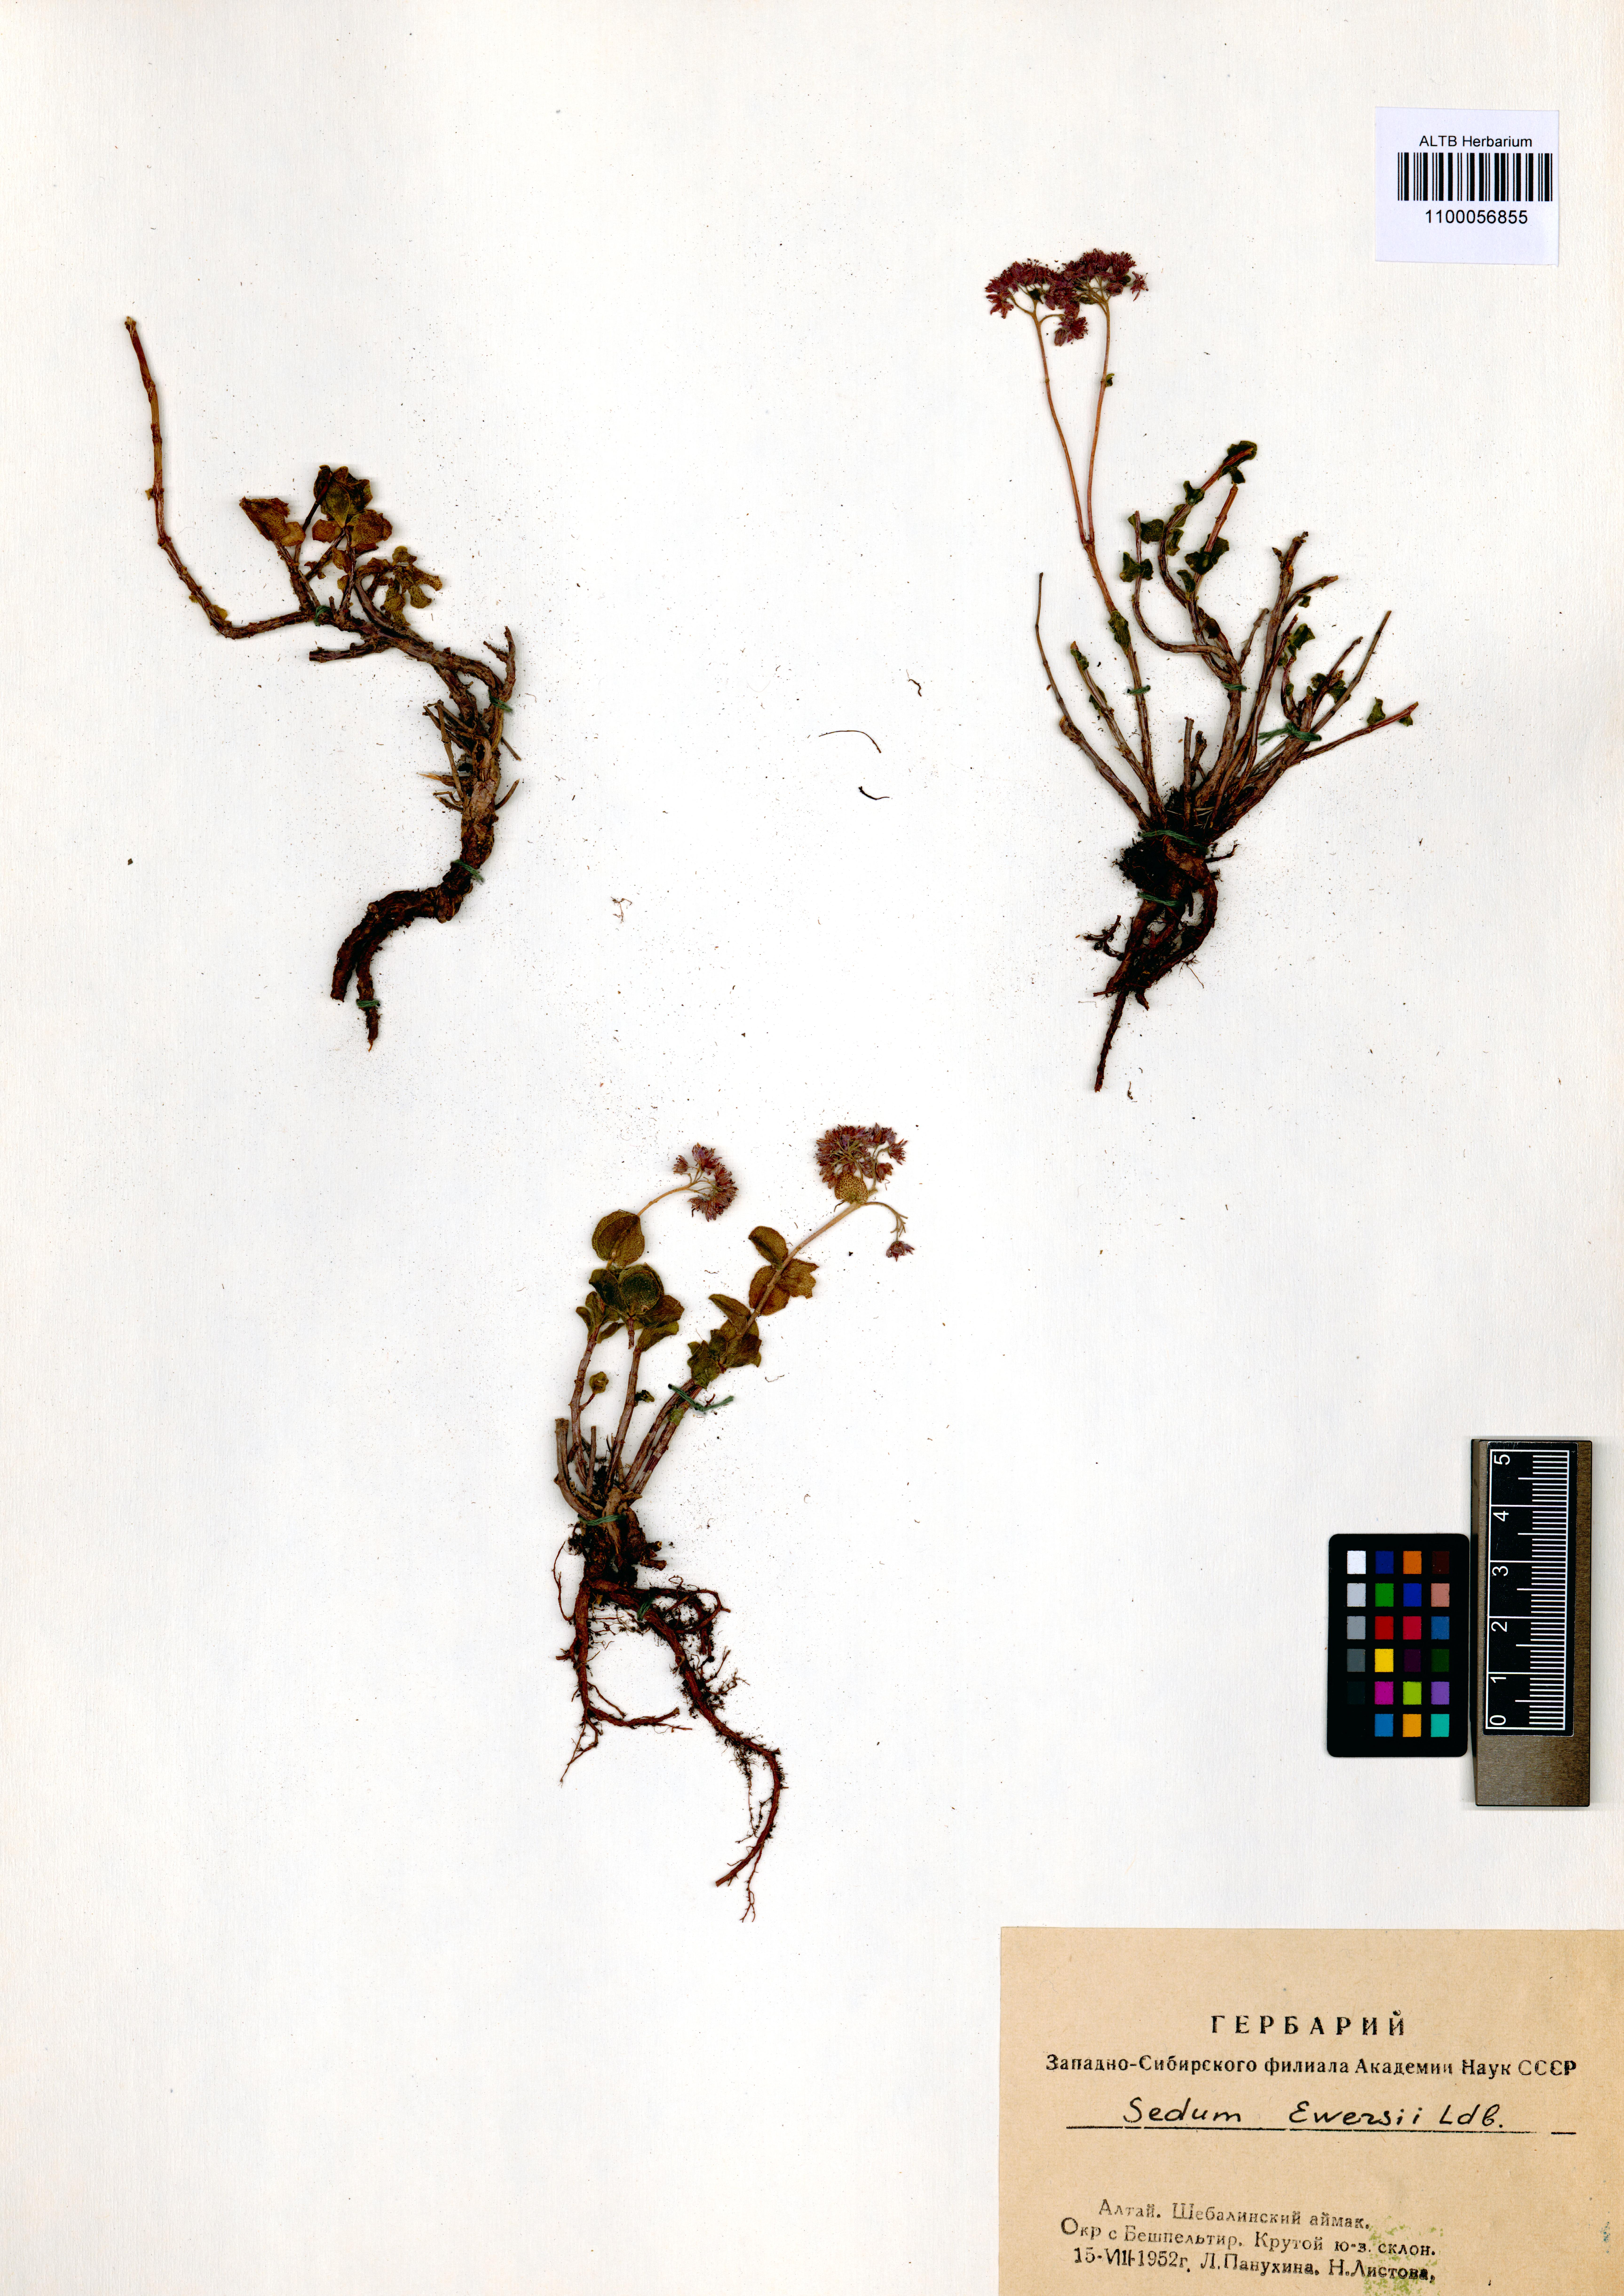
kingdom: Plantae
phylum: Tracheophyta
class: Magnoliopsida
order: Saxifragales
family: Crassulaceae
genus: Hylotelephium
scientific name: Hylotelephium ewersii
